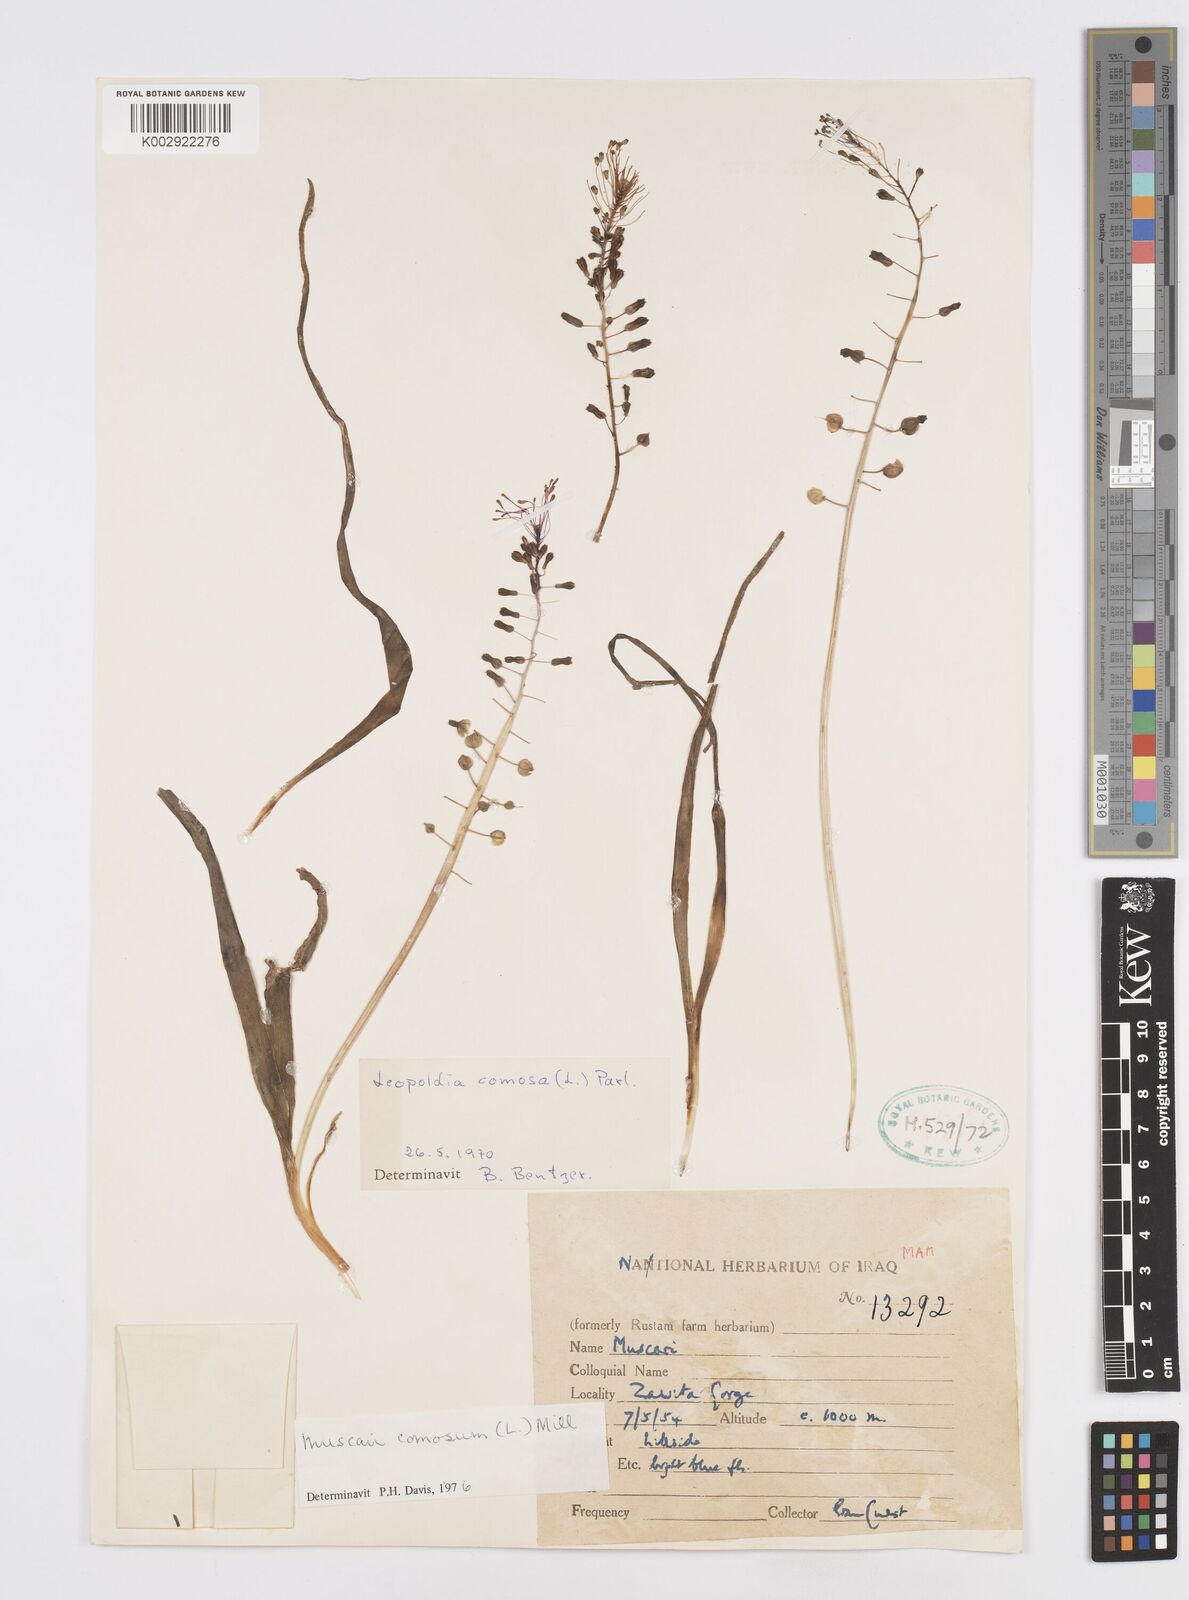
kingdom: Plantae
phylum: Tracheophyta
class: Liliopsida
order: Asparagales
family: Asparagaceae
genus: Muscari
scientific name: Muscari comosum
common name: Tassel hyacinth
